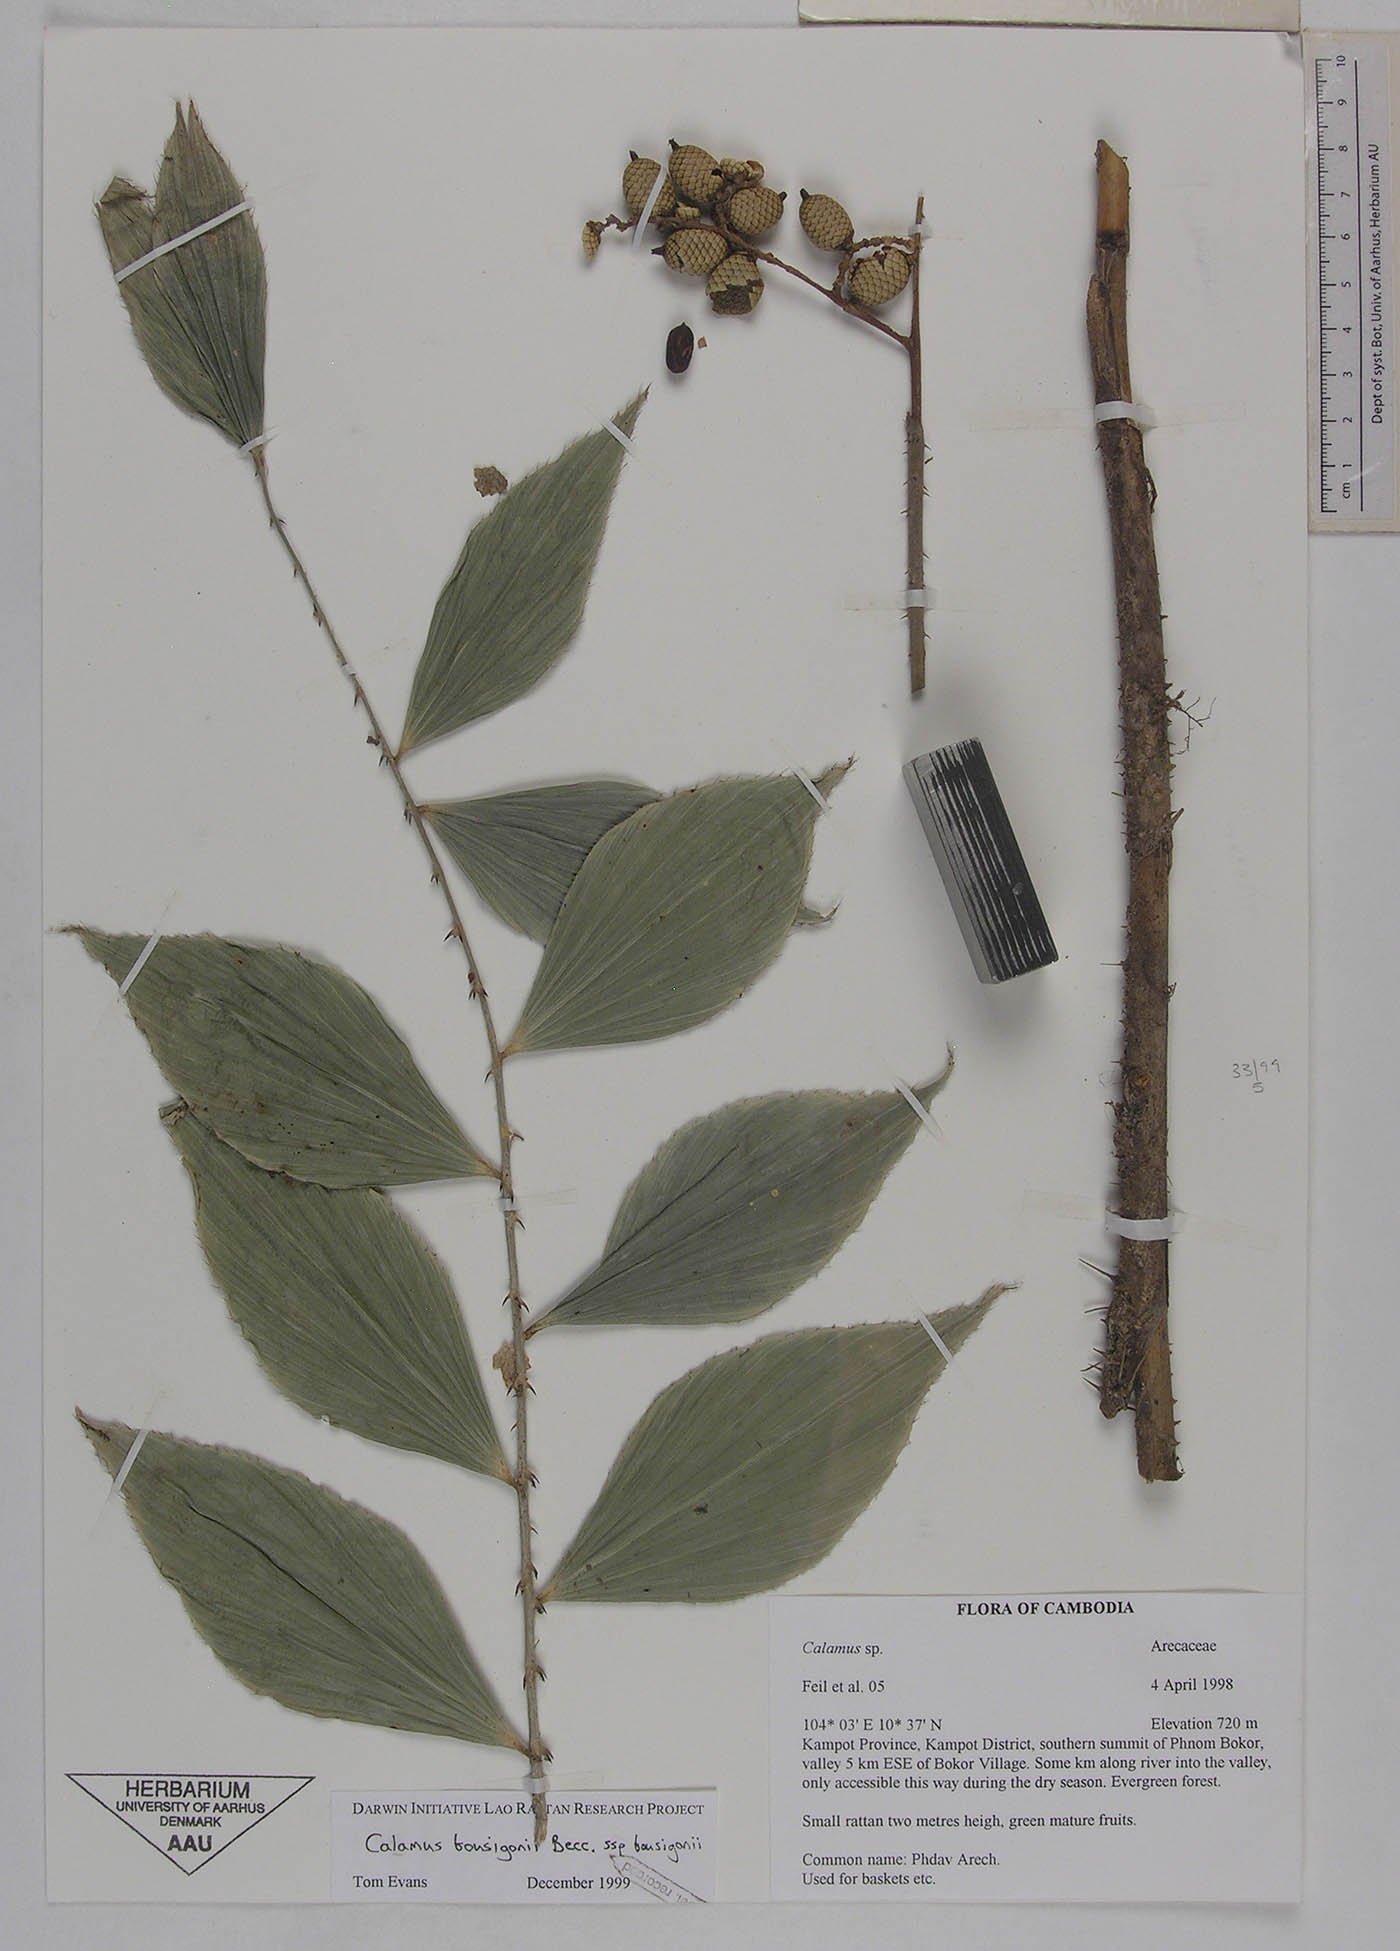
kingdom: Plantae
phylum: Tracheophyta
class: Liliopsida
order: Arecales
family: Arecaceae
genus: Calamus
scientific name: Calamus bousigonii
